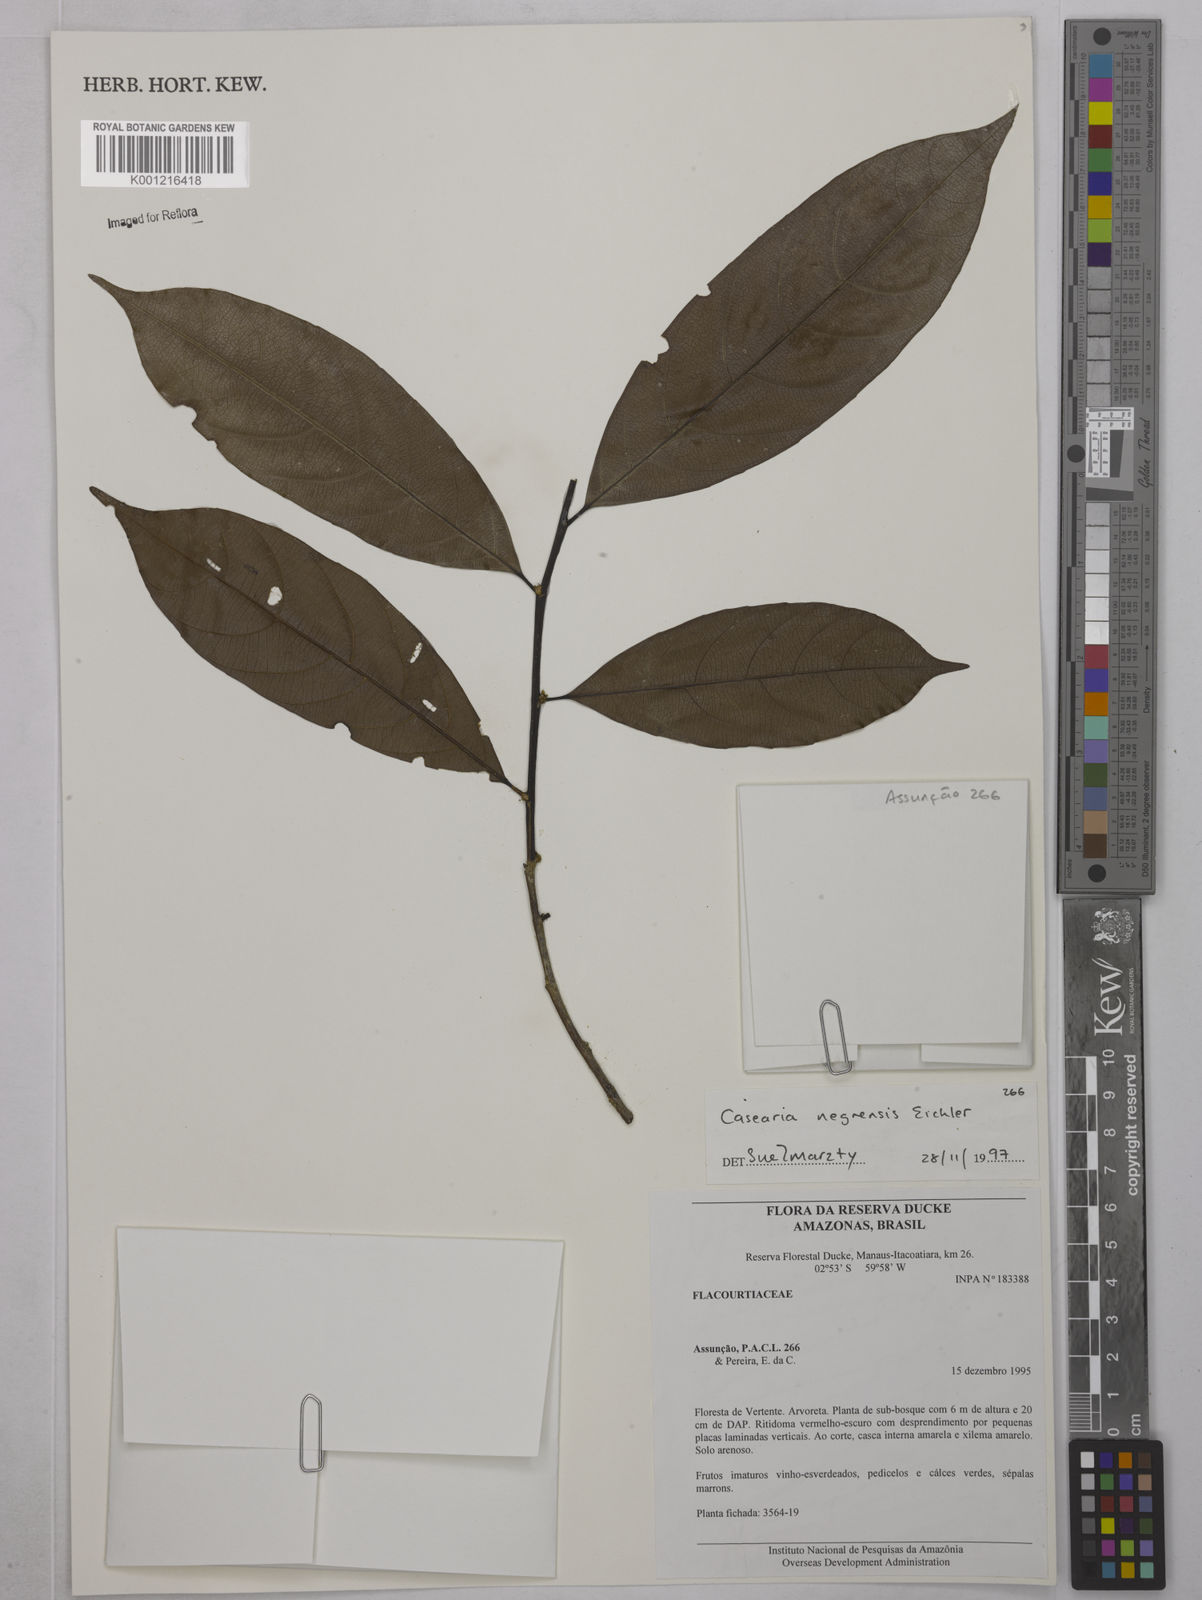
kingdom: Plantae
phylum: Tracheophyta
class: Magnoliopsida
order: Malpighiales
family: Salicaceae
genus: Casearia
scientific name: Casearia negrensis
